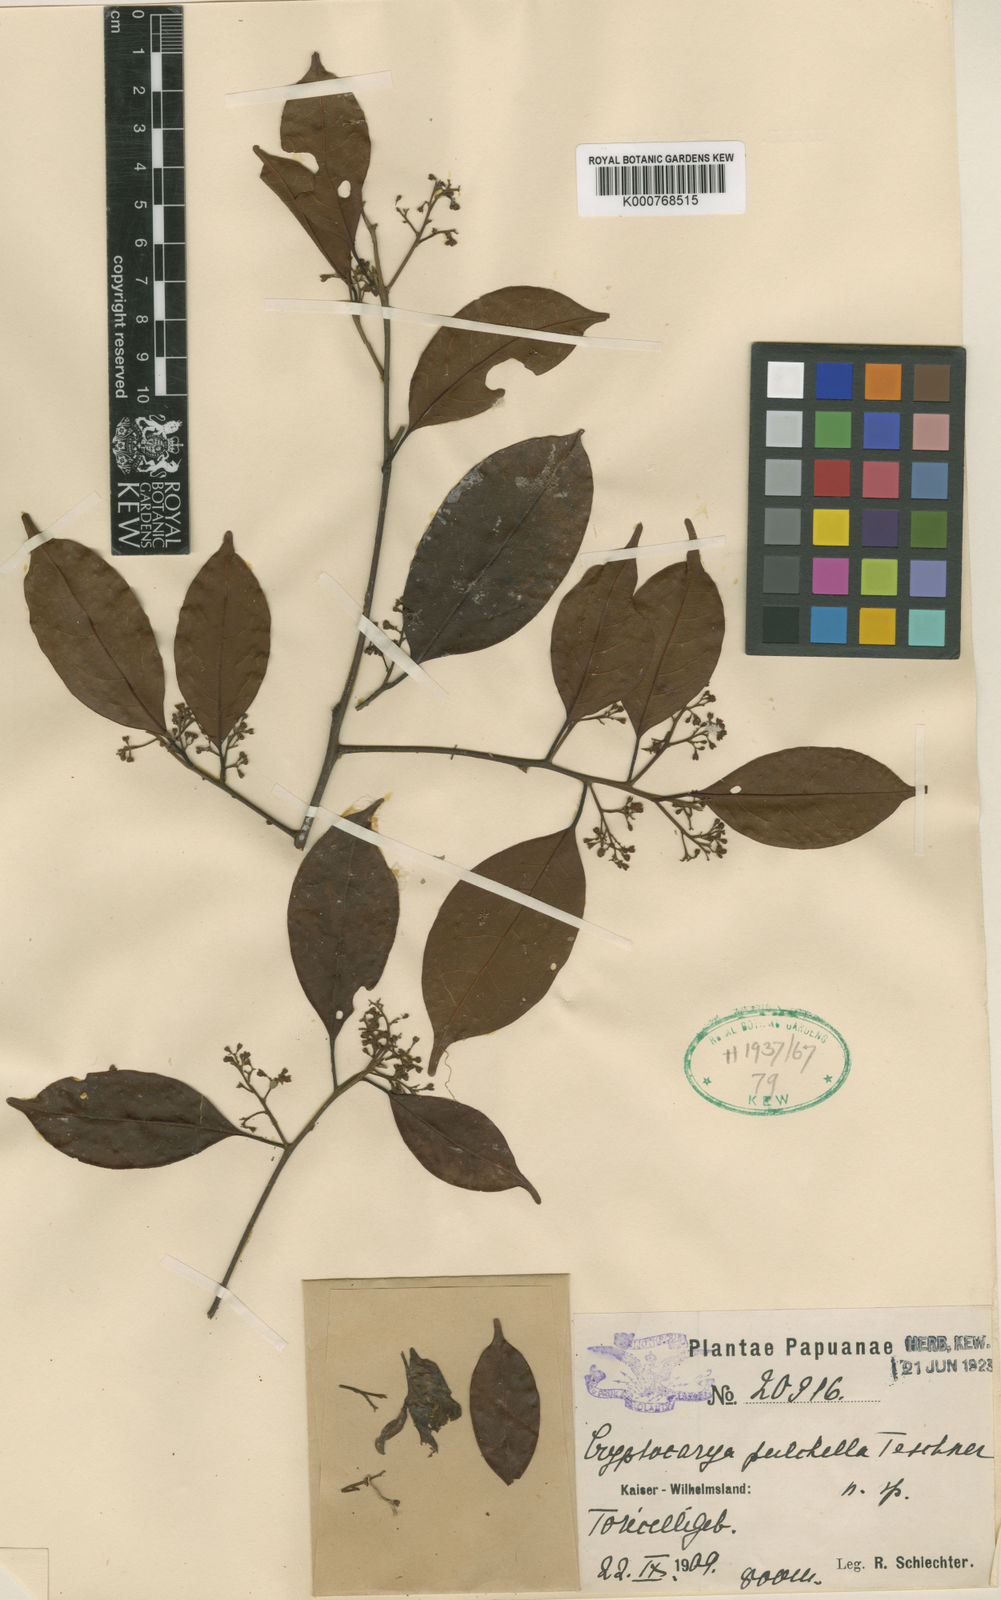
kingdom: Plantae
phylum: Tracheophyta
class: Magnoliopsida
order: Laurales
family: Lauraceae
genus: Cryptocarya
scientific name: Cryptocarya pulchella
